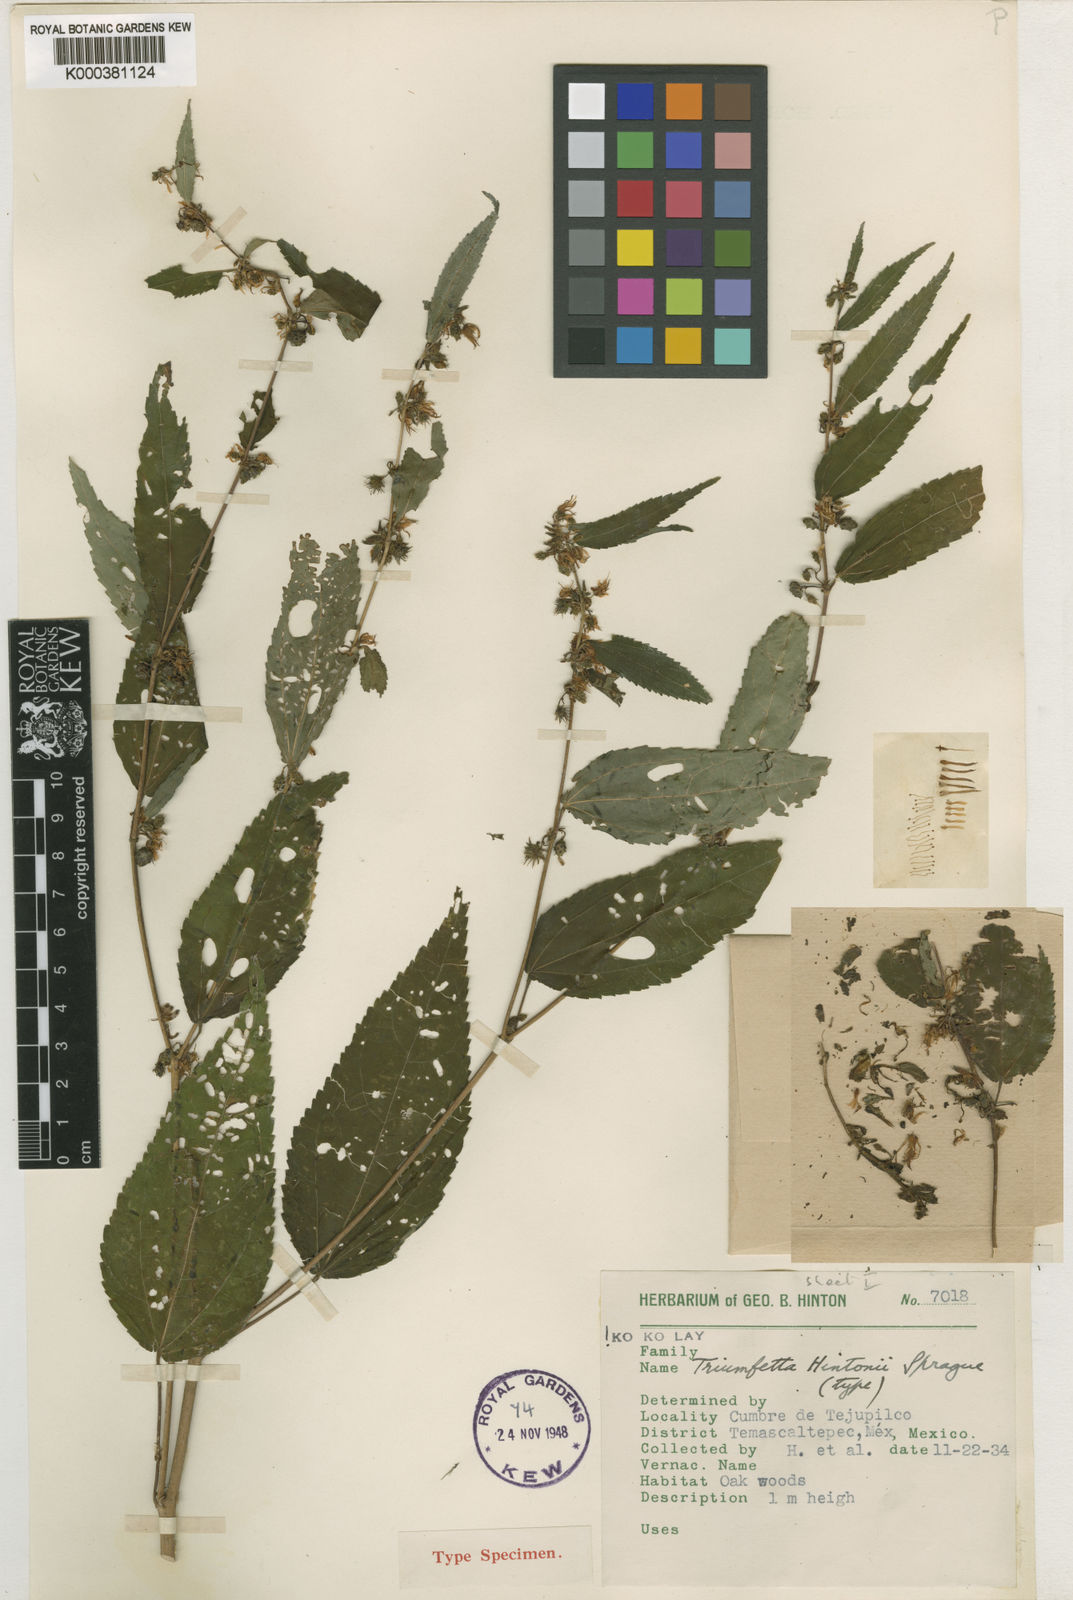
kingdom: Plantae
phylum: Tracheophyta
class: Magnoliopsida
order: Malvales
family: Malvaceae
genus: Triumfetta
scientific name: Triumfetta simplicifolia
